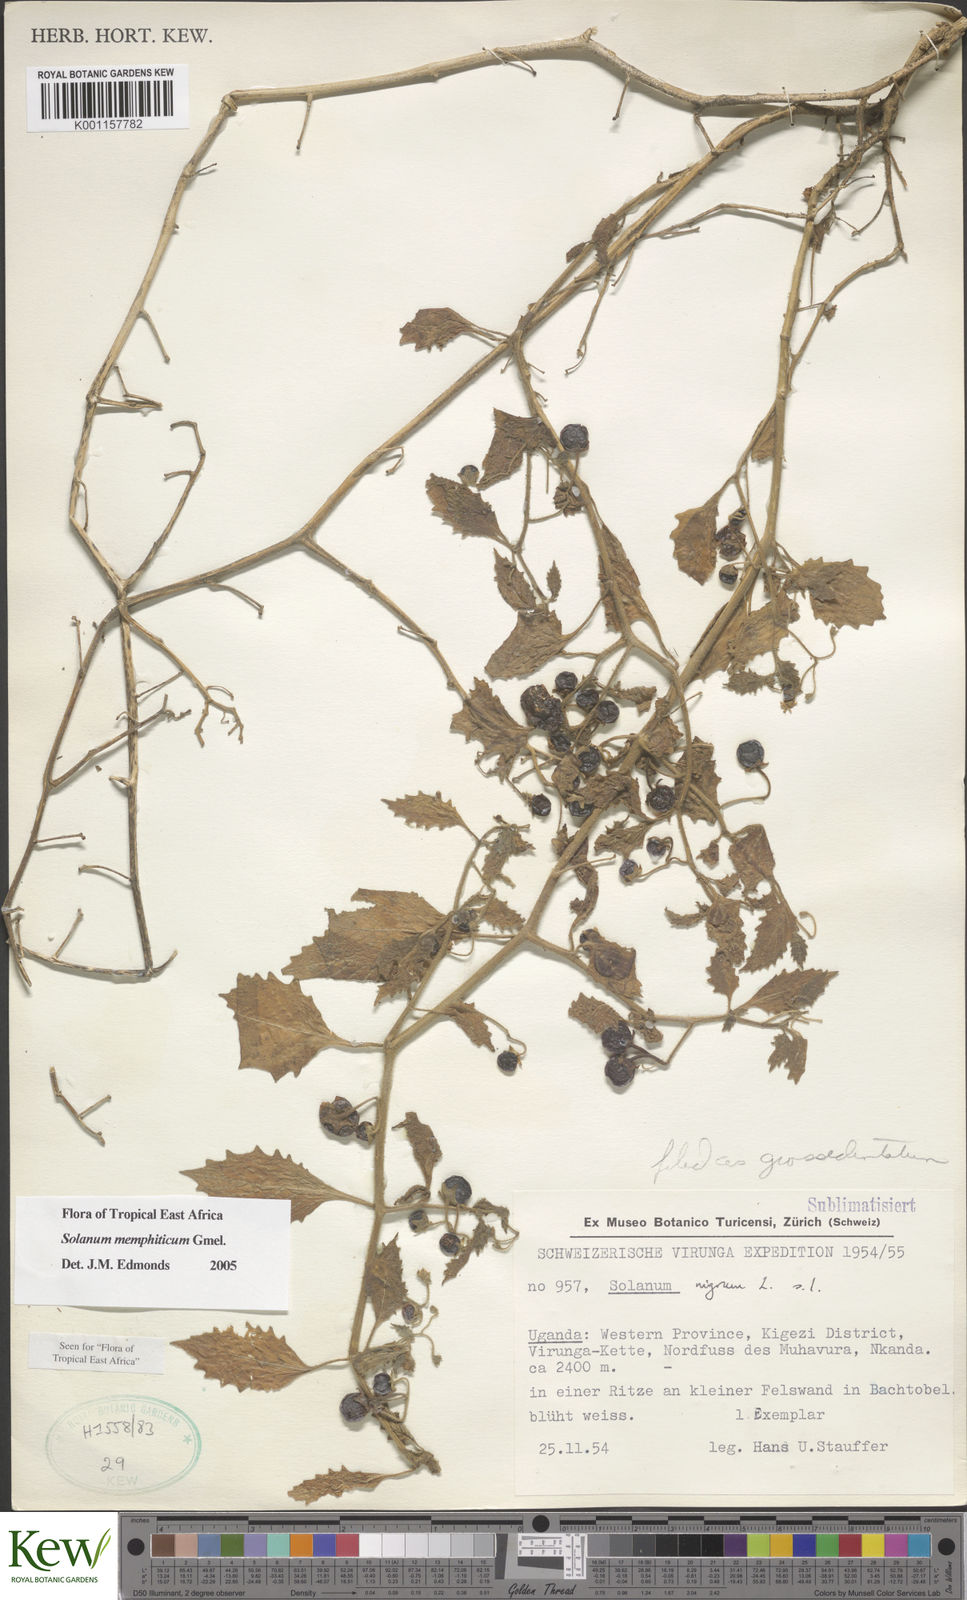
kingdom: Plantae
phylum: Tracheophyta
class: Magnoliopsida
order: Solanales
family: Solanaceae
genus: Solanum
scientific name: Solanum memphiticum
